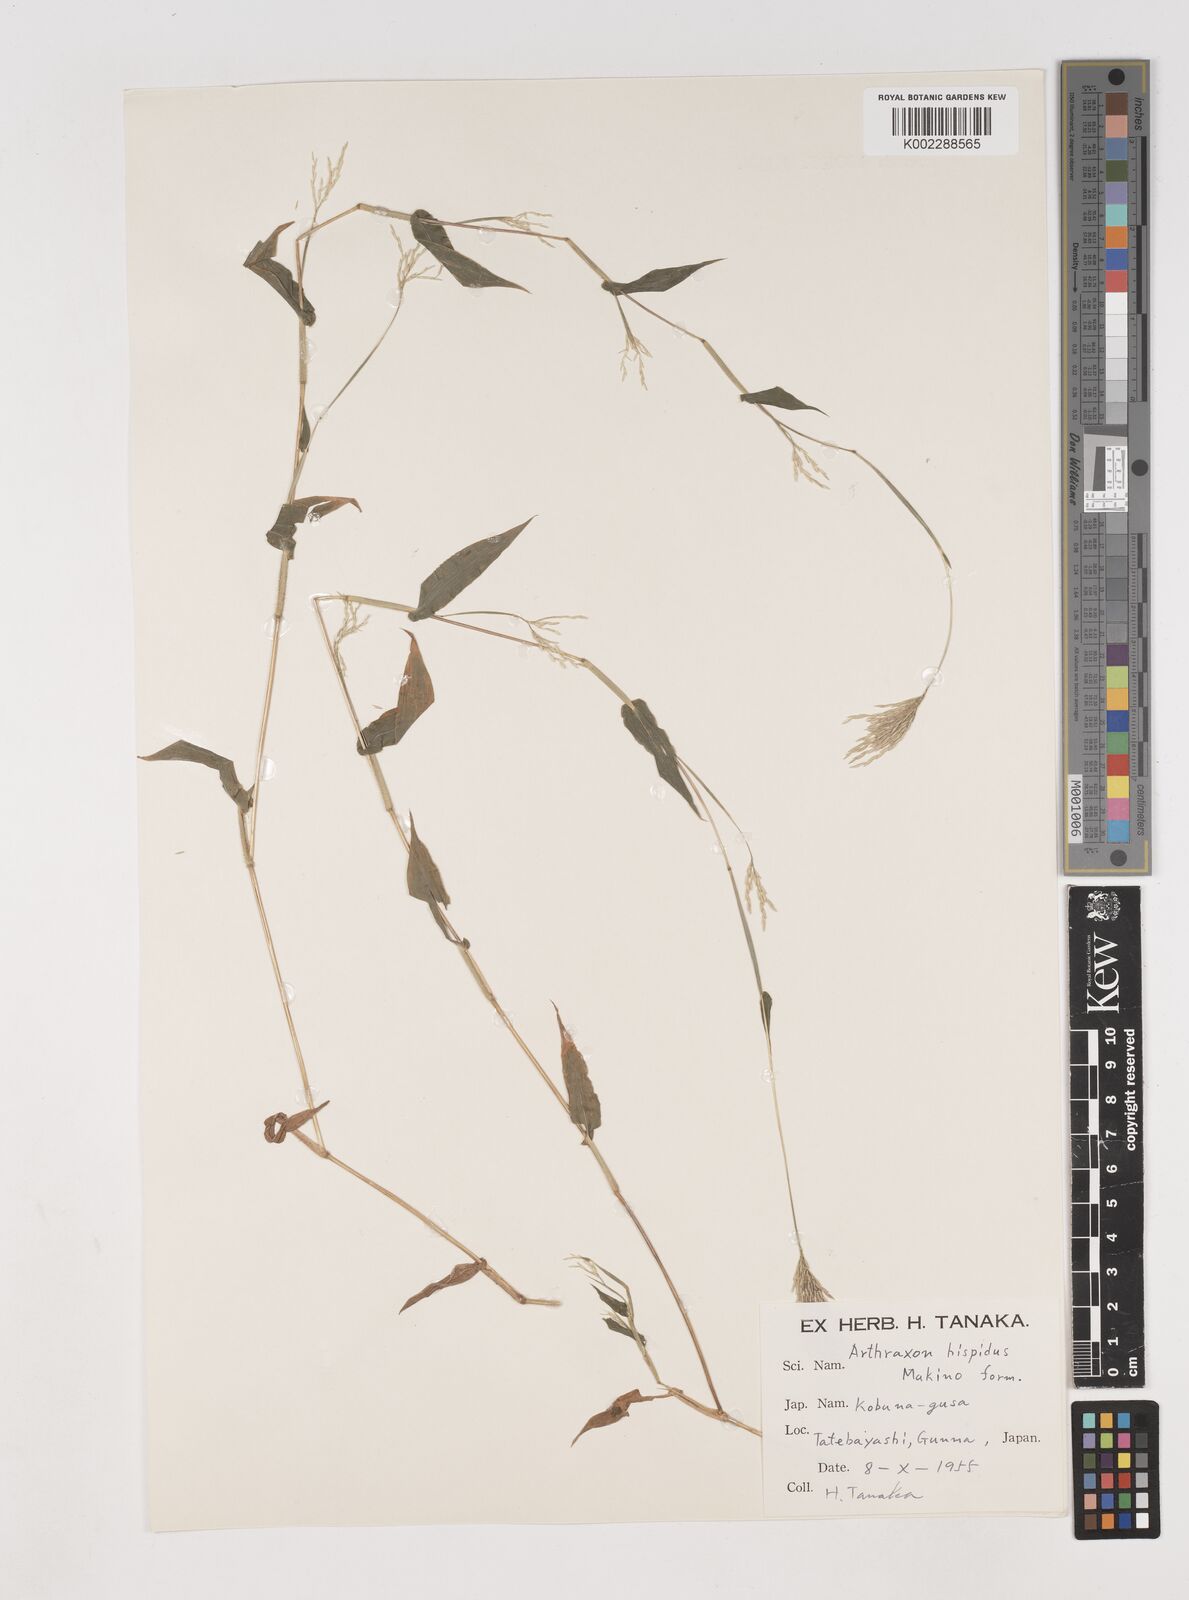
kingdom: Plantae
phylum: Tracheophyta
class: Liliopsida
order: Poales
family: Poaceae
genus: Arthraxon
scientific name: Arthraxon hispidus
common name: Small carpgrass
